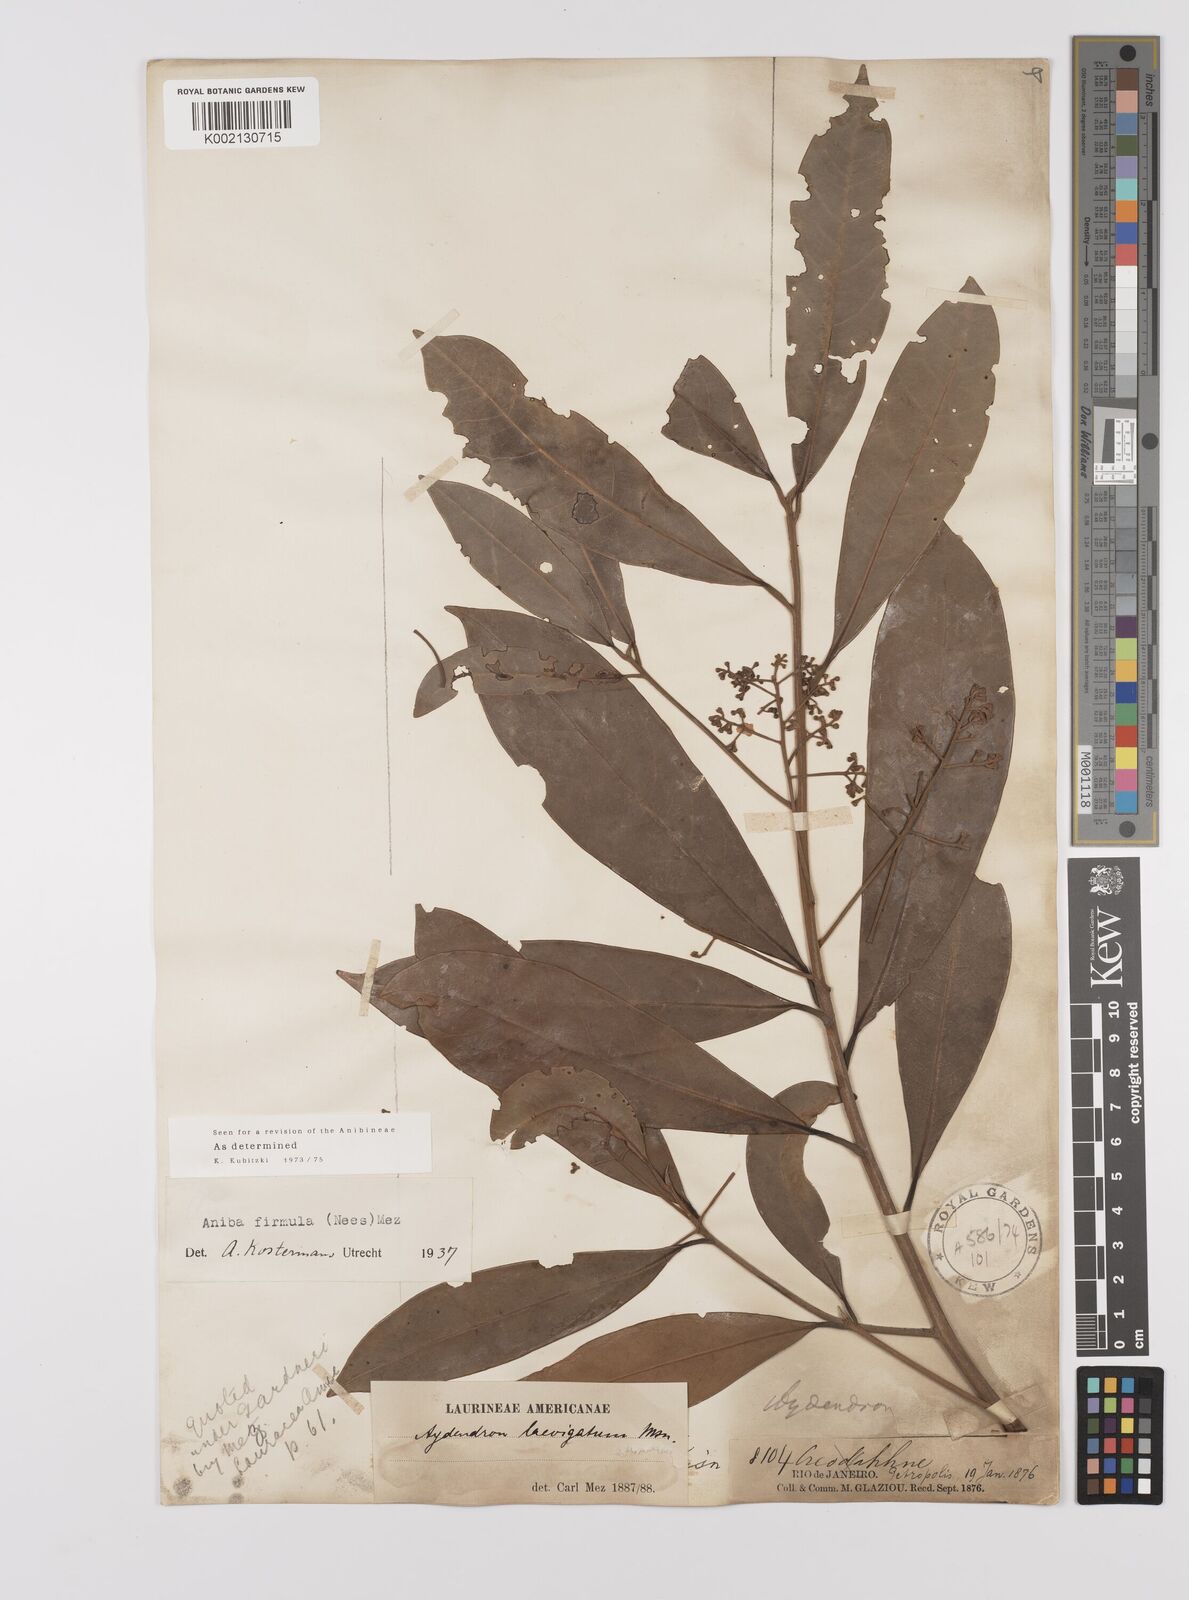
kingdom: Plantae
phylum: Tracheophyta
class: Magnoliopsida
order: Laurales
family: Lauraceae
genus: Aniba
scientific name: Aniba firmula
